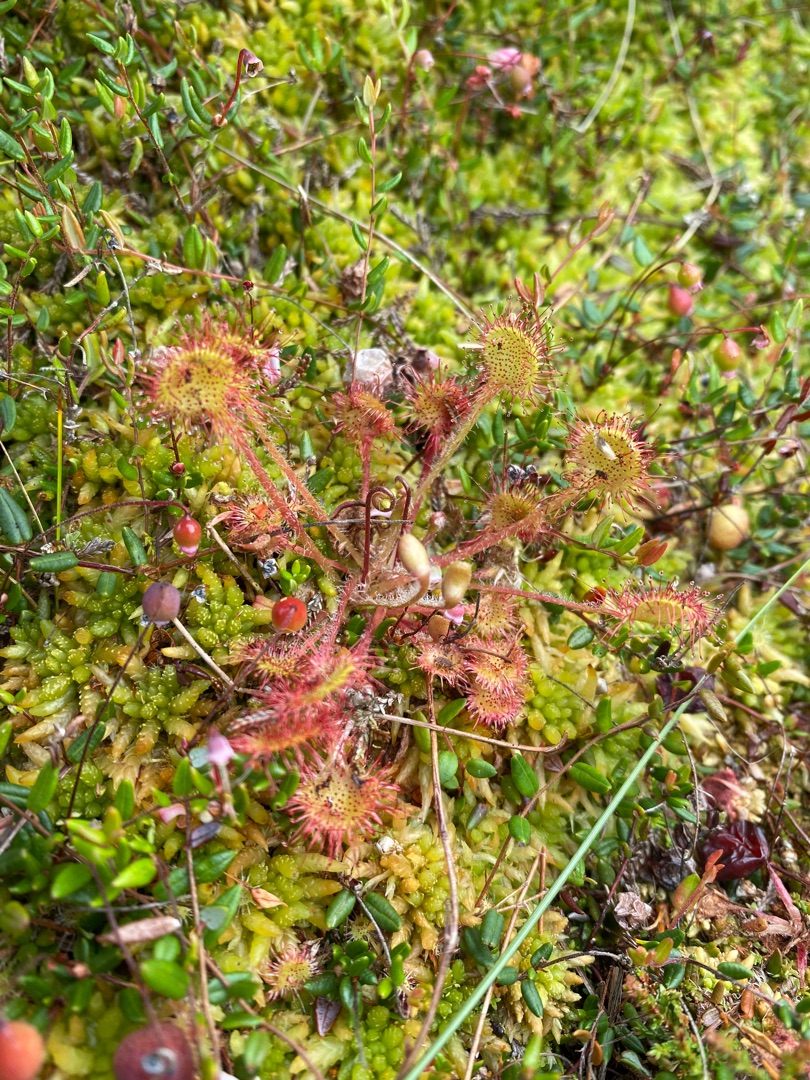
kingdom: Plantae
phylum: Tracheophyta
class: Magnoliopsida
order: Caryophyllales
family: Droseraceae
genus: Drosera
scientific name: Drosera rotundifolia
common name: Rundbladet soldug
